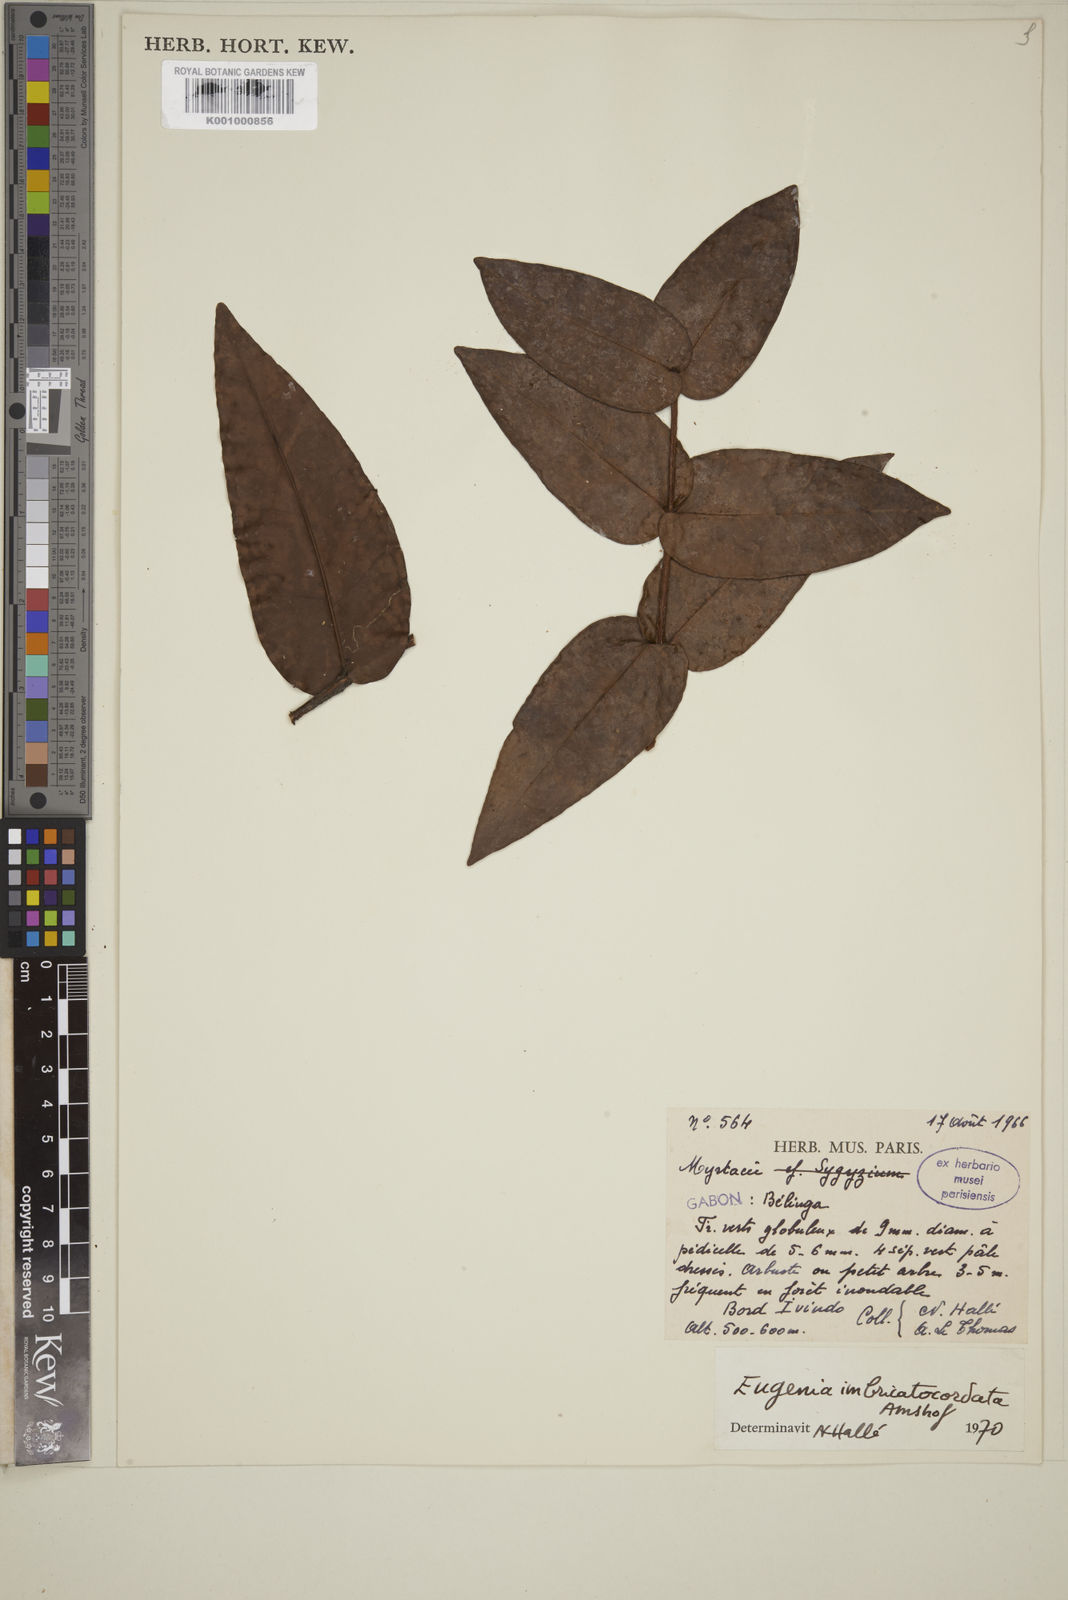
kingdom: Plantae
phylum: Tracheophyta
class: Magnoliopsida
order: Myrtales
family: Myrtaceae
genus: Eugenia
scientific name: Eugenia imbricatocordata
